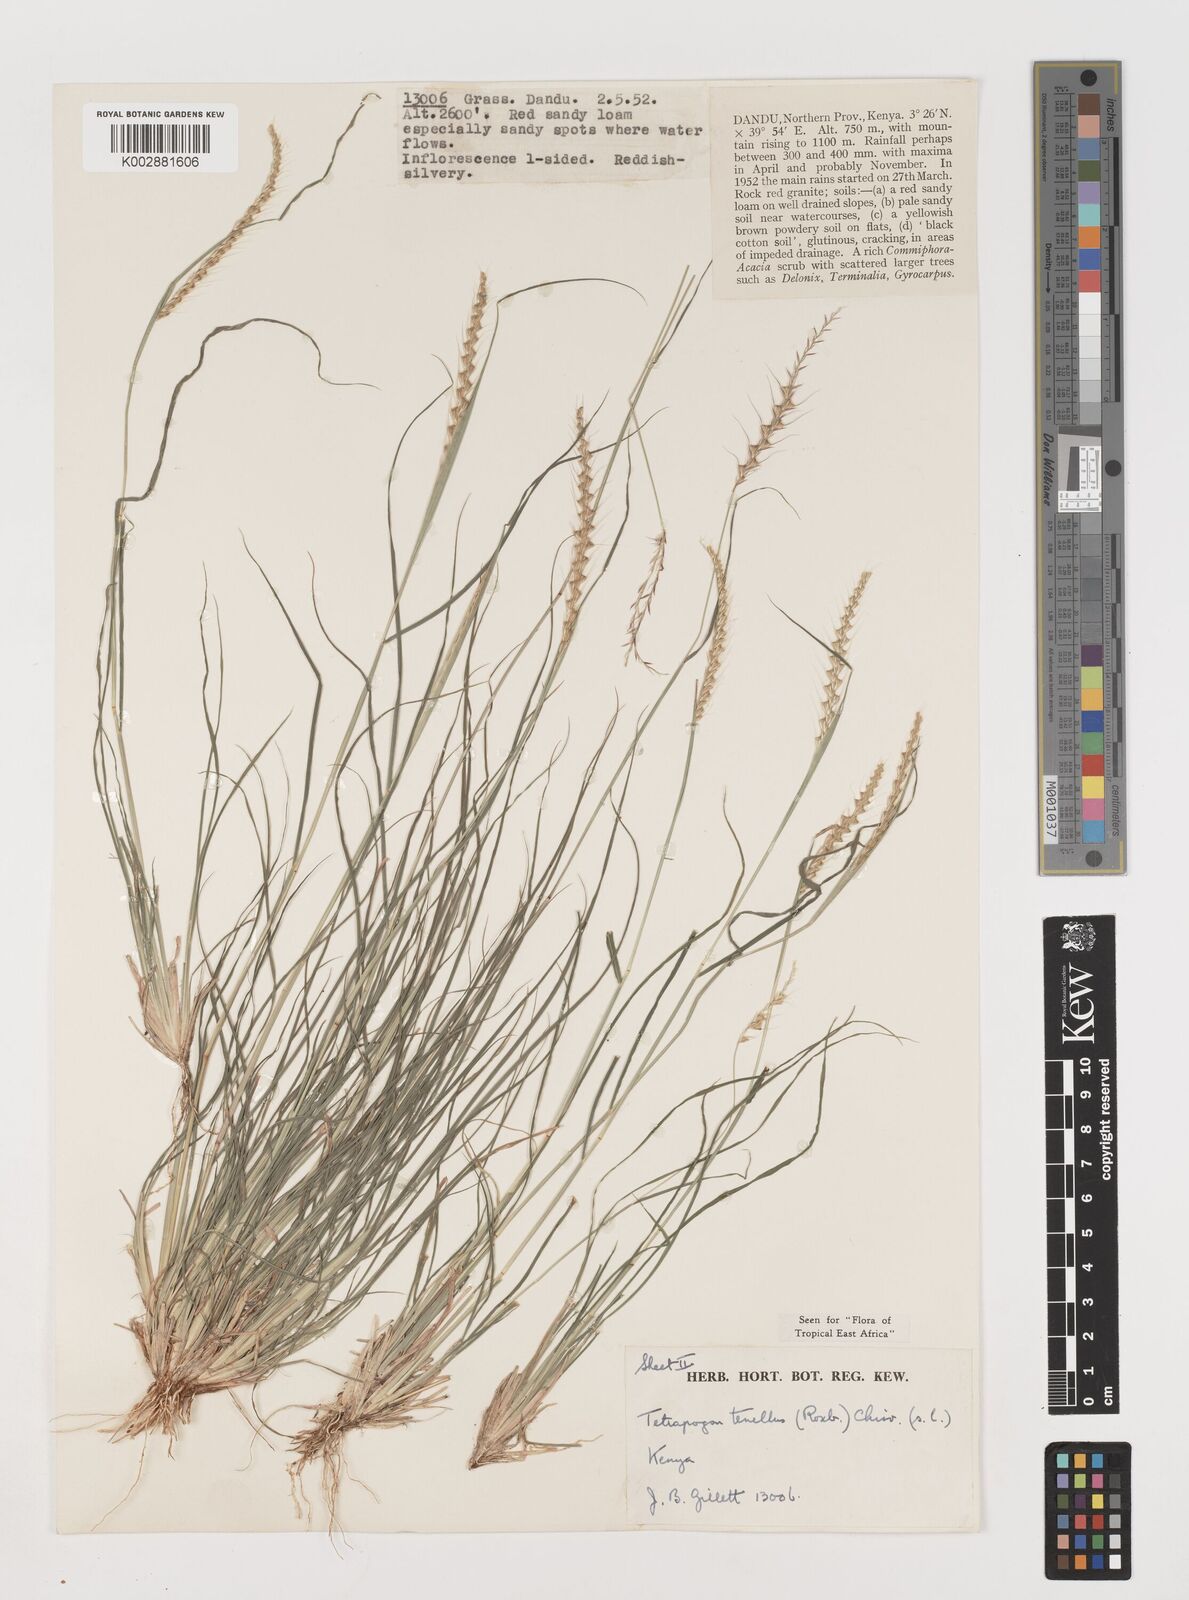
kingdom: Plantae
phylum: Tracheophyta
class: Liliopsida
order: Poales
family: Poaceae
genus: Tetrapogon
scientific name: Tetrapogon tenellus
